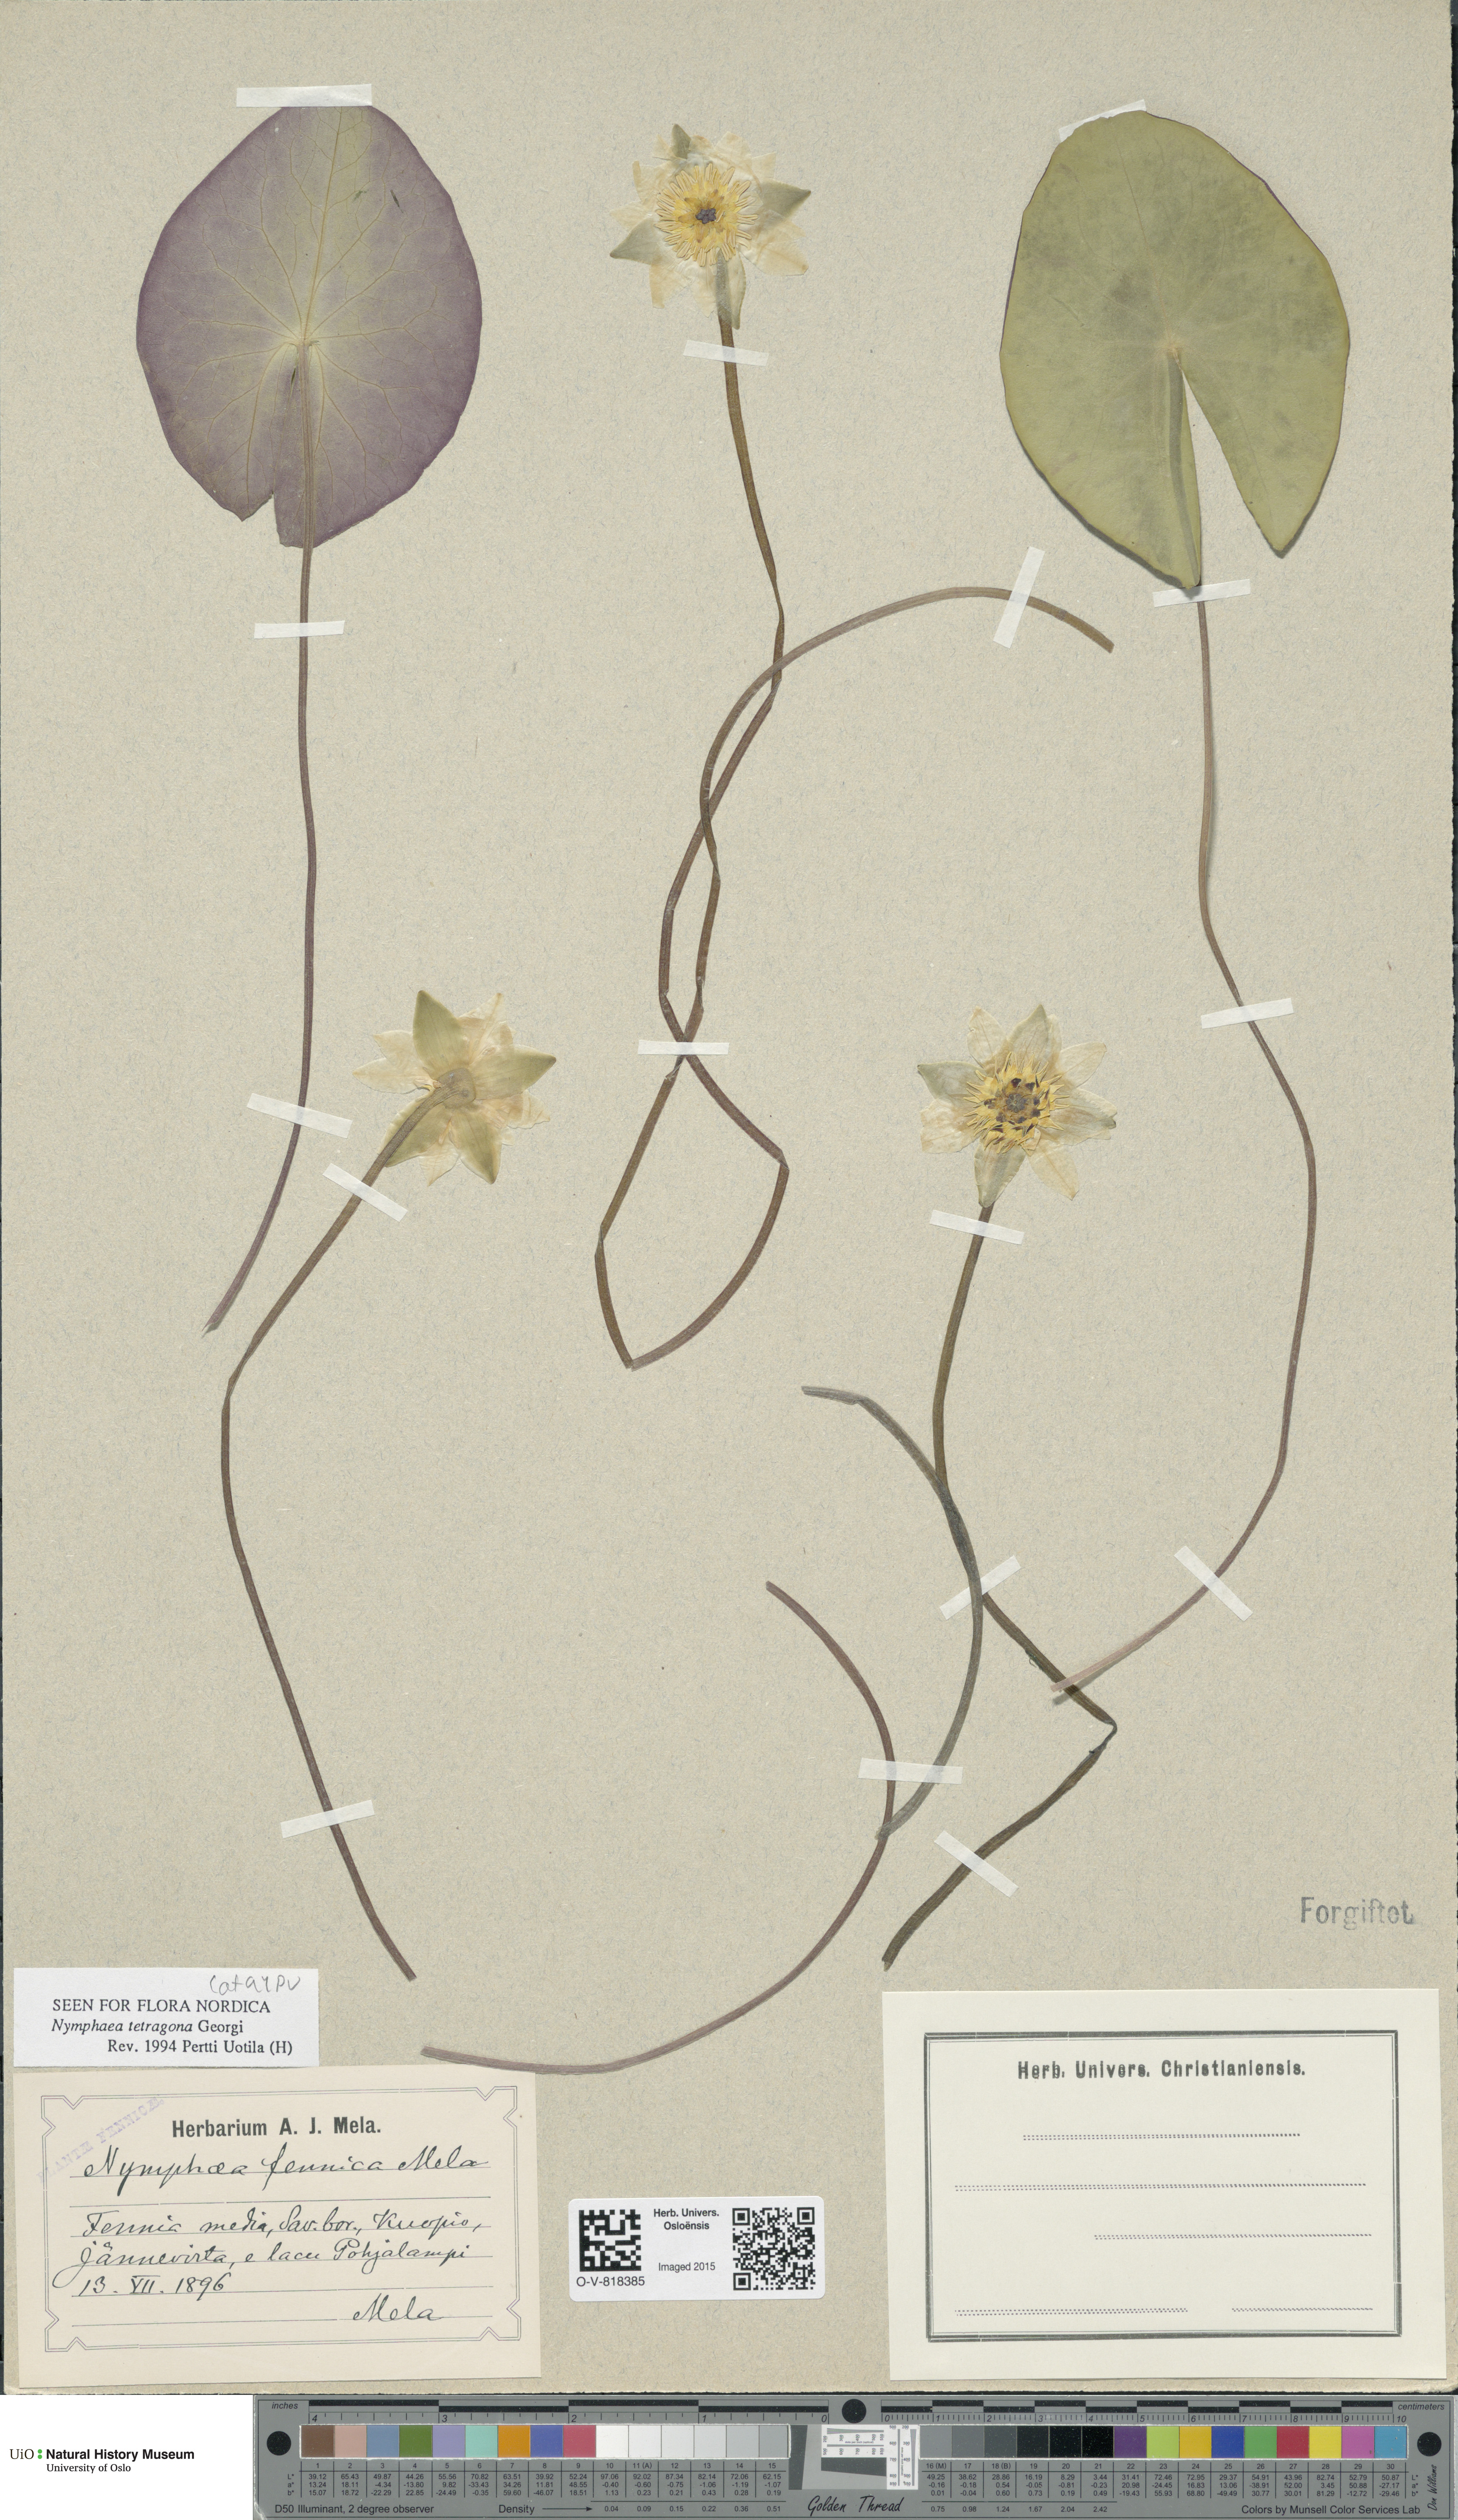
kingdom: Plantae
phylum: Tracheophyta
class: Magnoliopsida
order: Nymphaeales
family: Nymphaeaceae
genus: Nymphaea
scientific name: Nymphaea tetragona
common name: Pygmy water-lily
